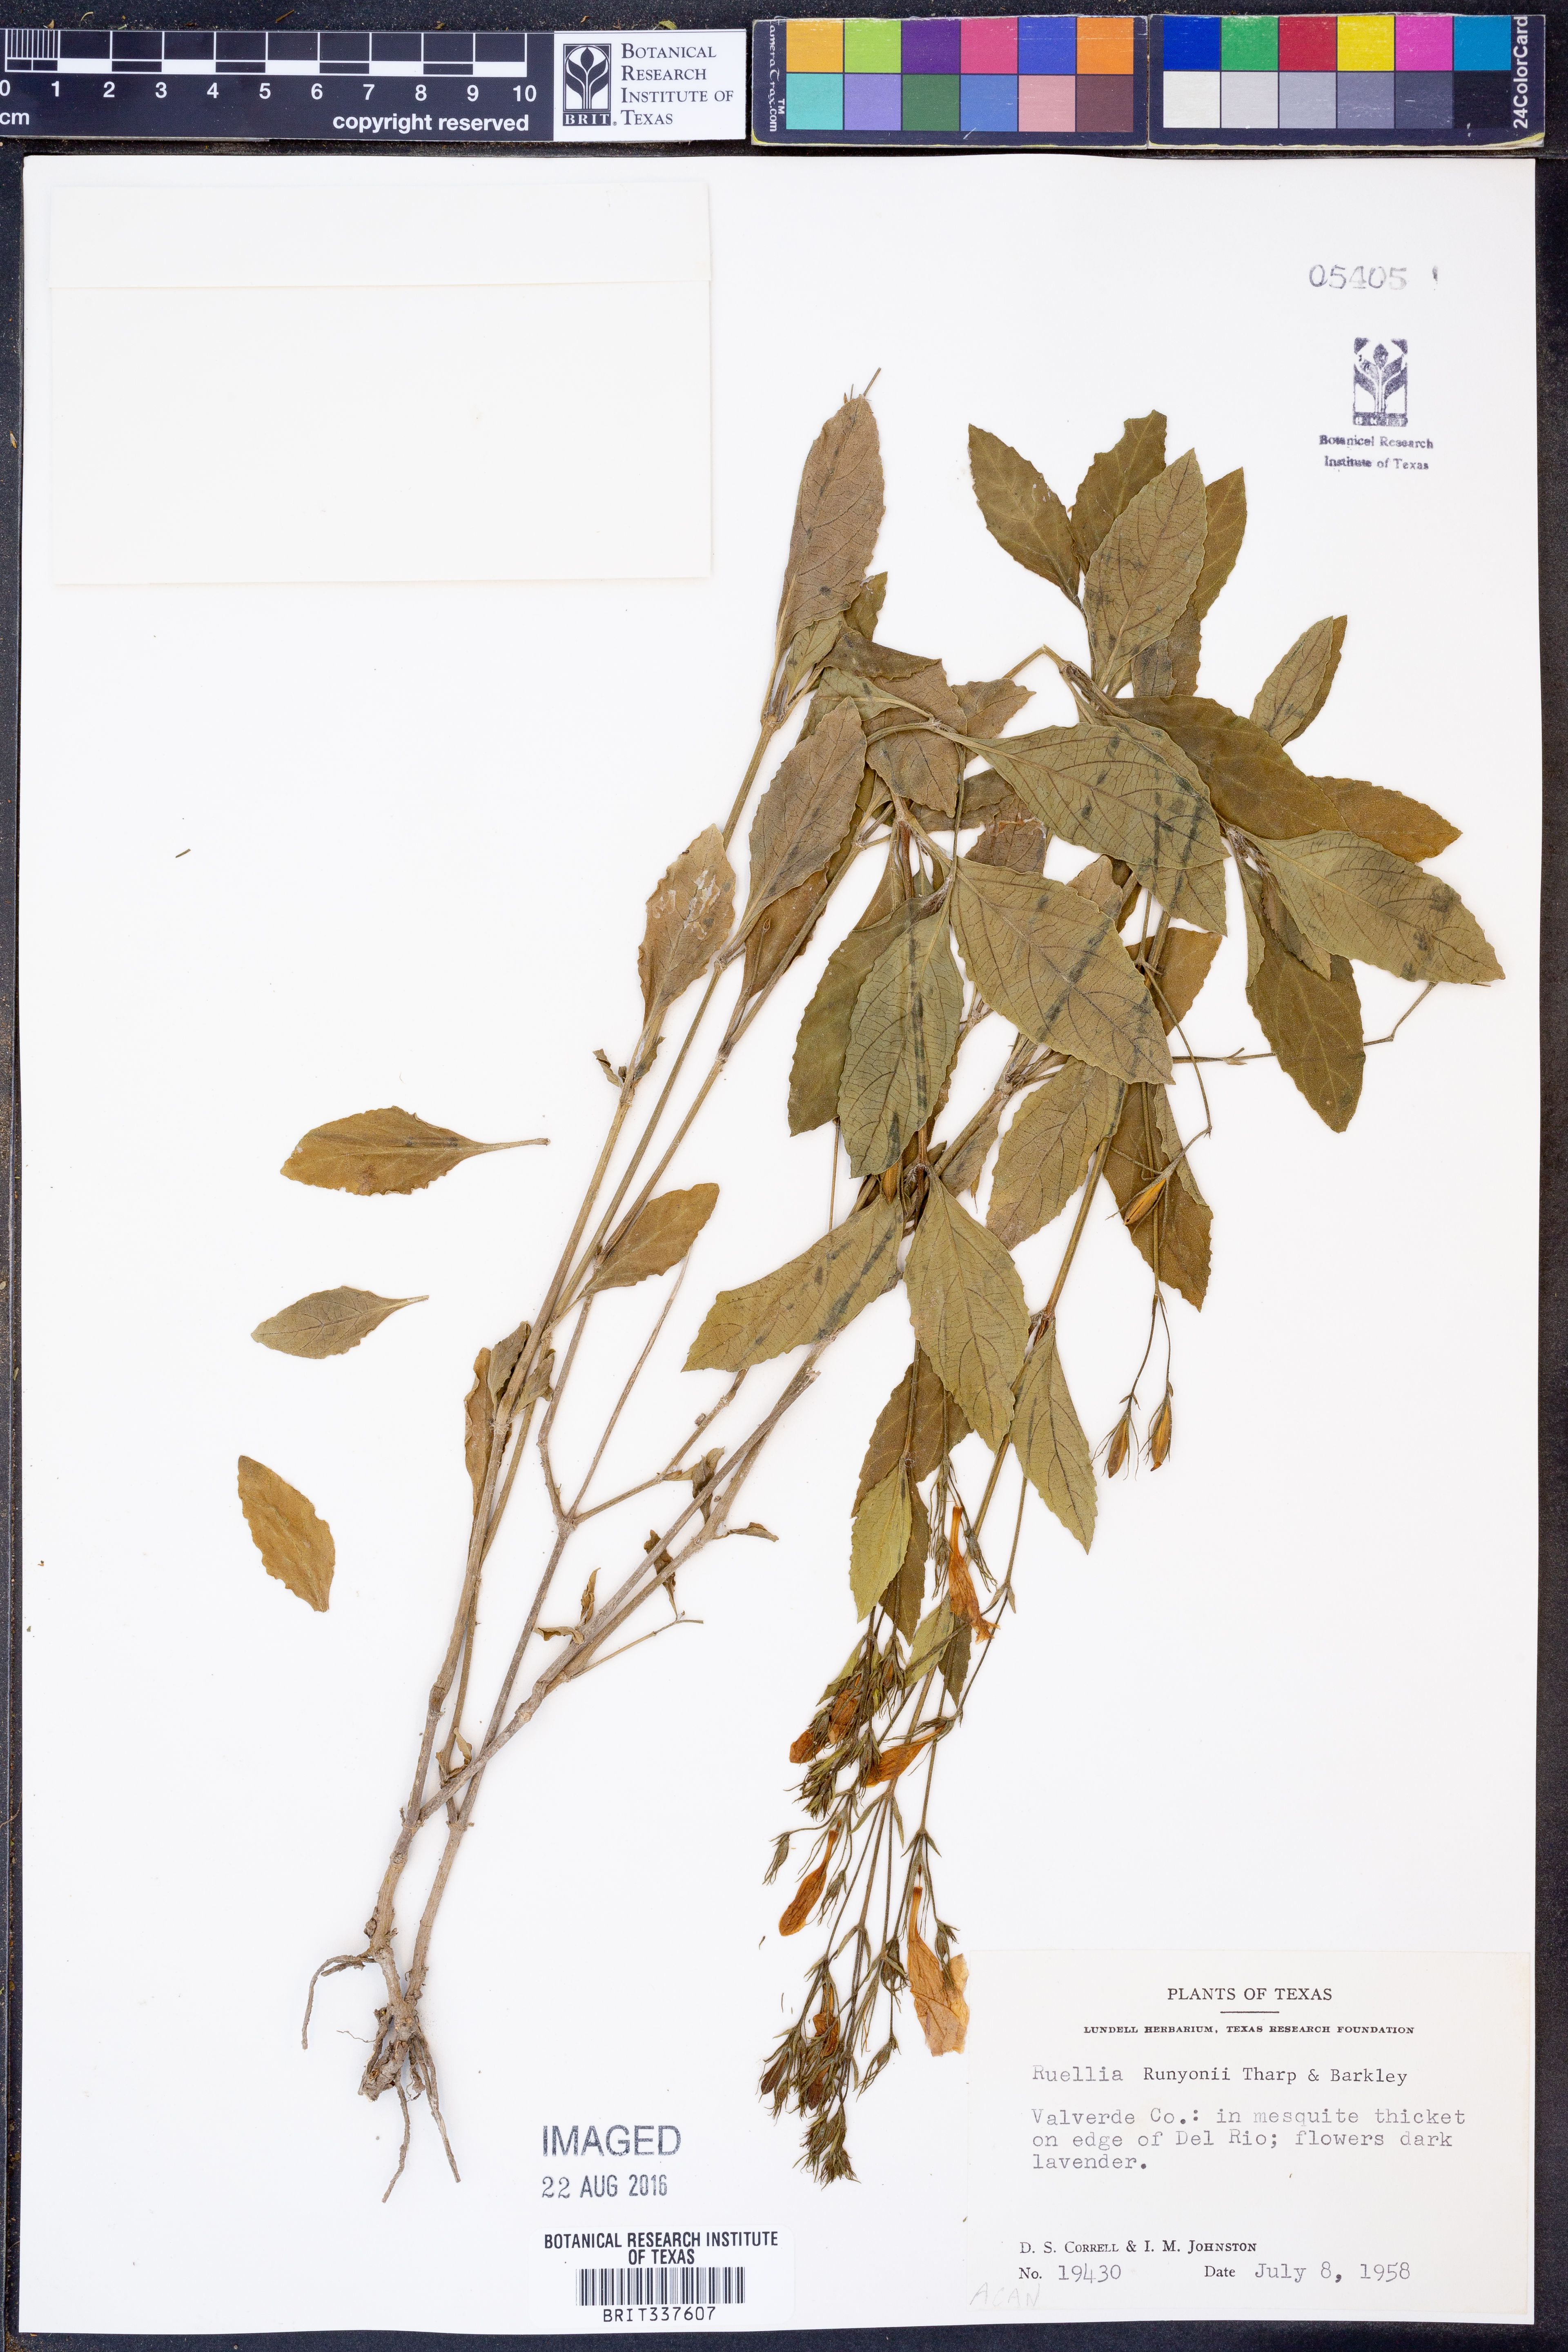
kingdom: Plantae
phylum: Tracheophyta
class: Magnoliopsida
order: Lamiales
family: Acanthaceae
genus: Ruellia
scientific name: Ruellia ciliatiflora
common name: Hairyflower wild petunia
